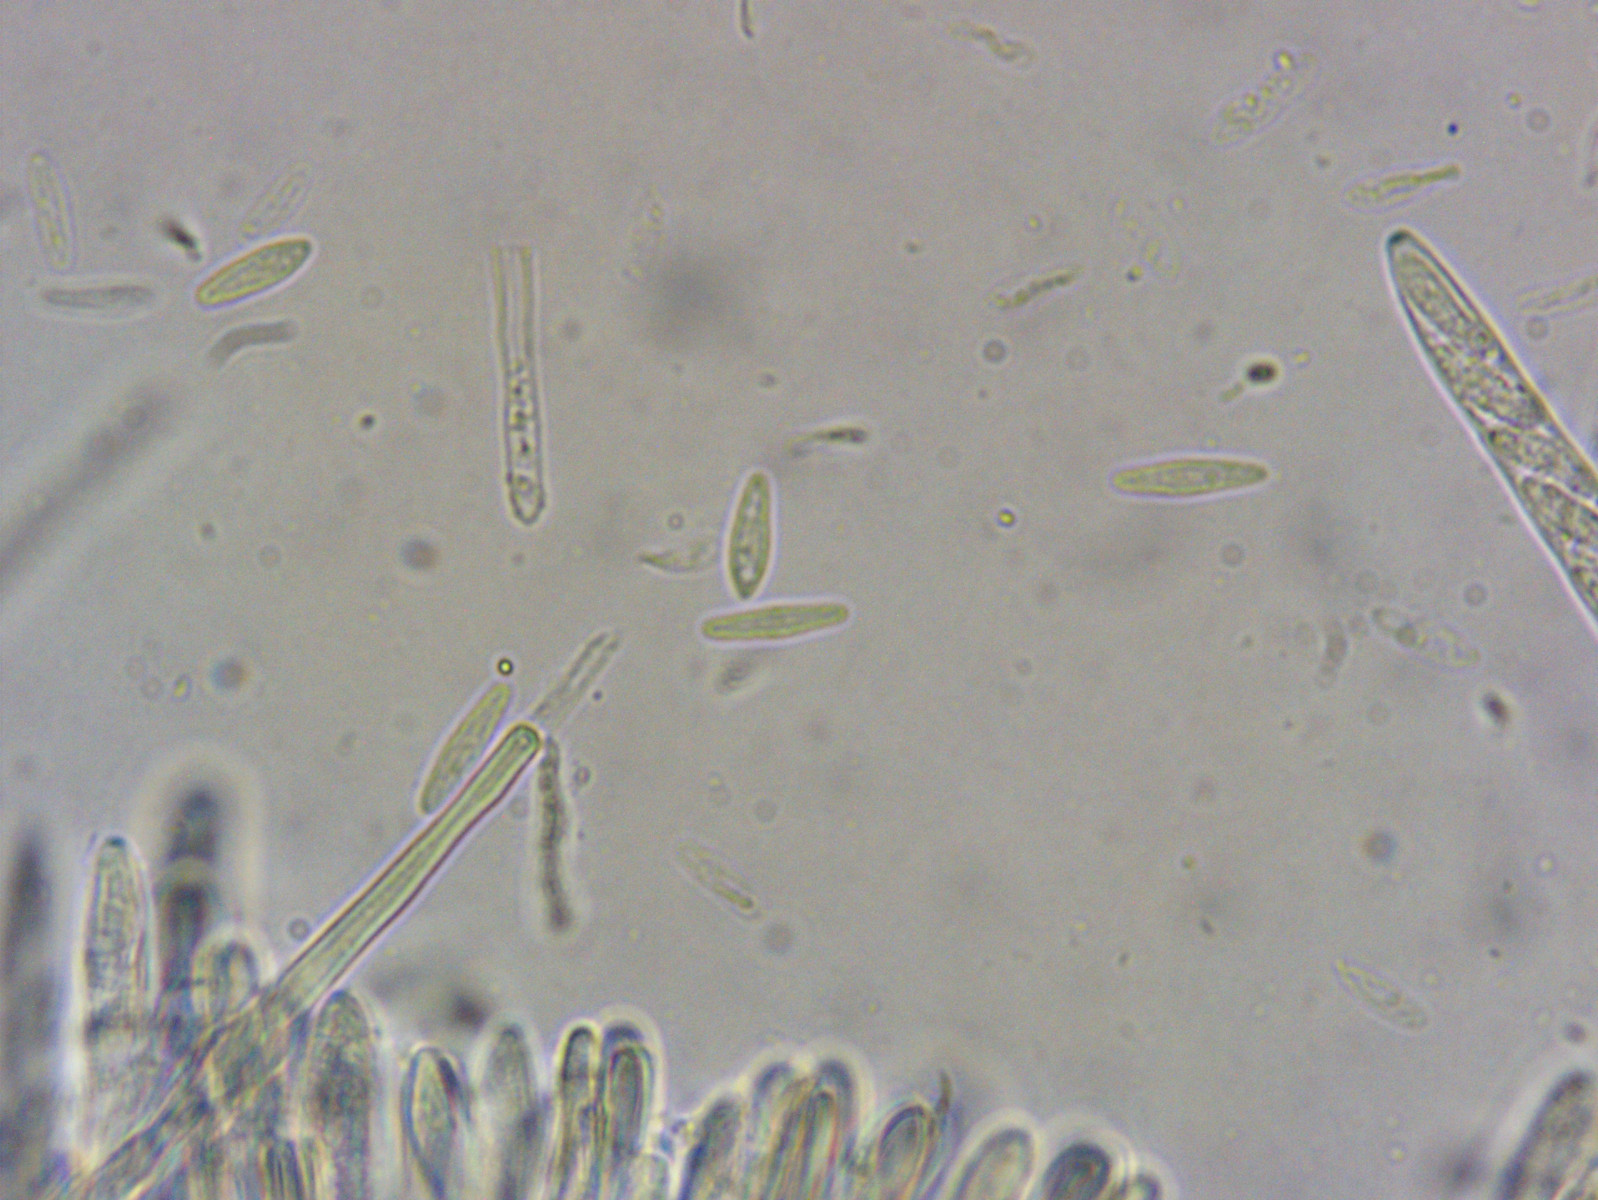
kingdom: Fungi
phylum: Ascomycota
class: Leotiomycetes
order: Helotiales
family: Mollisiaceae
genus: Mollisia
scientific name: Mollisia cinerea
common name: almindelig gråskive
